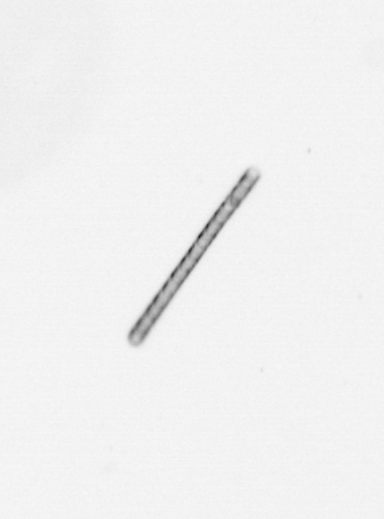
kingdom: Chromista
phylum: Ochrophyta
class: Bacillariophyceae
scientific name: Bacillariophyceae
